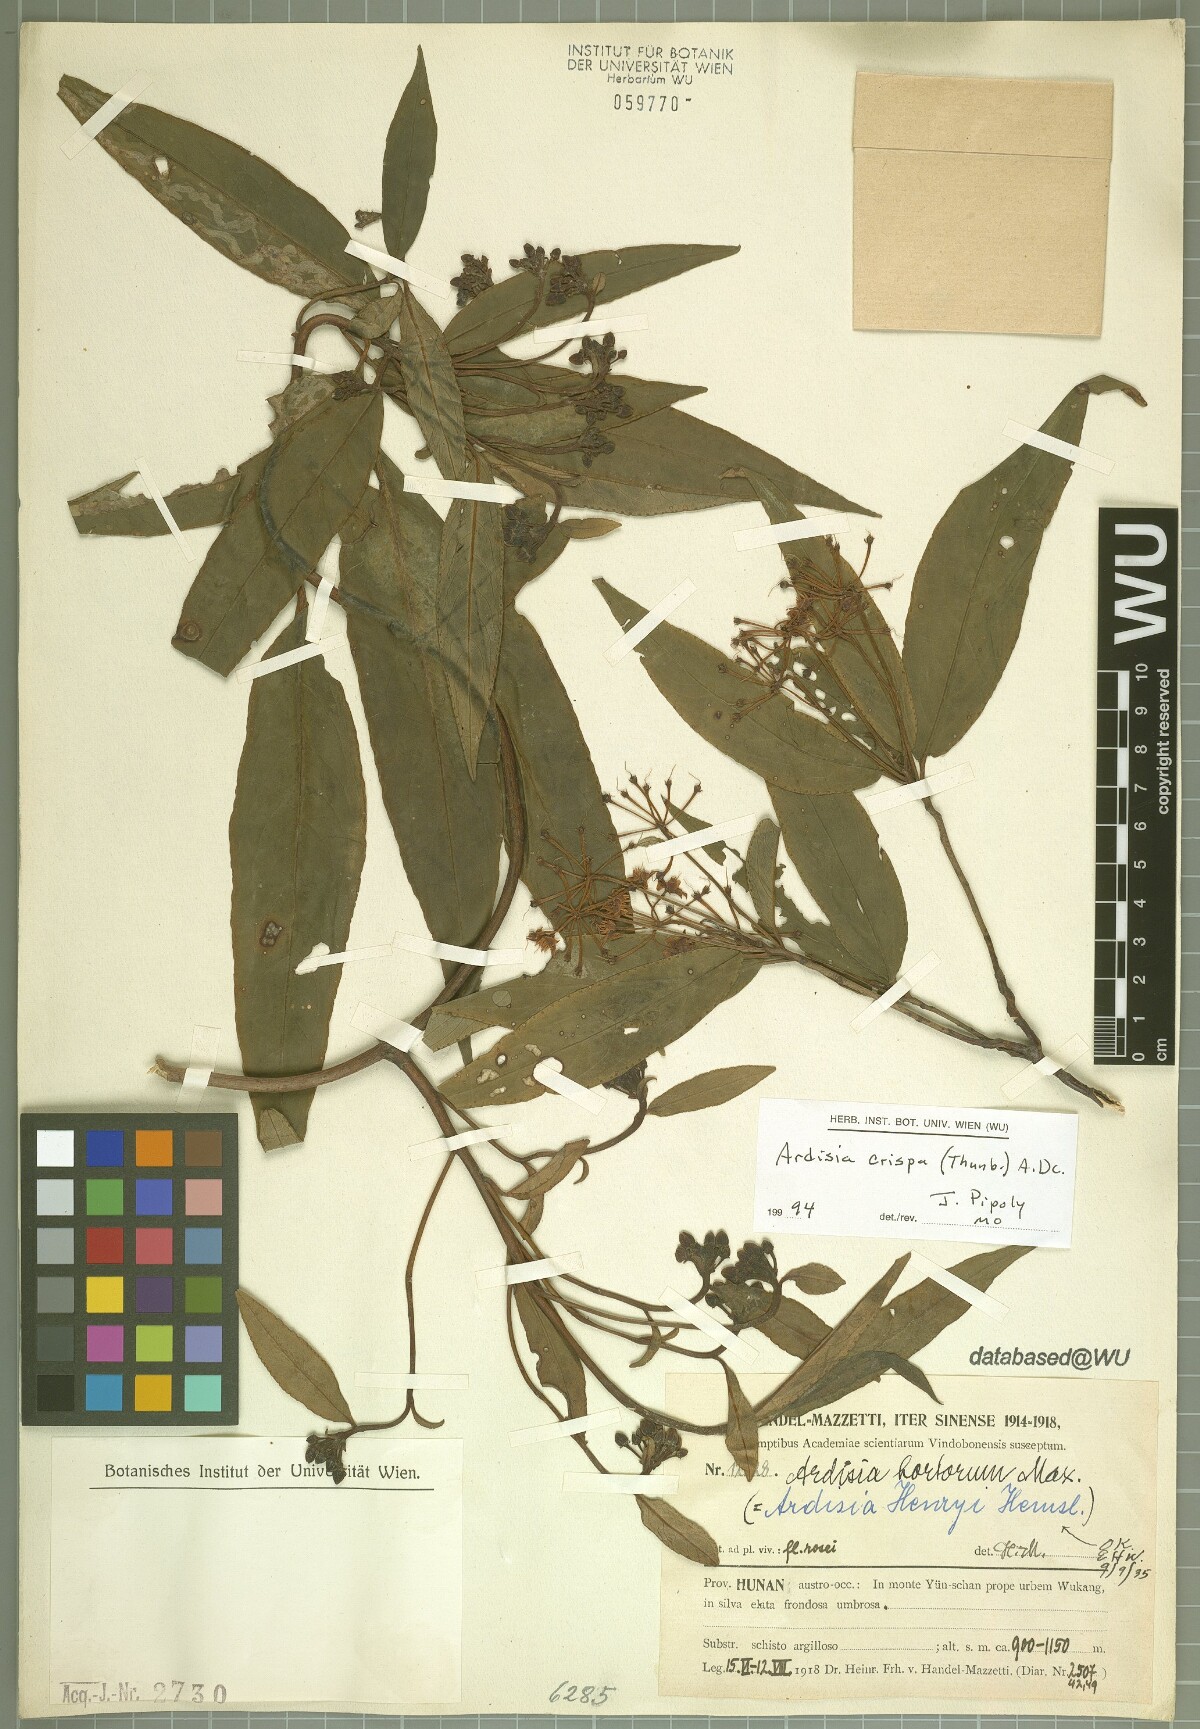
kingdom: Plantae
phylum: Tracheophyta
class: Magnoliopsida
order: Ericales
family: Primulaceae
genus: Ardisia
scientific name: Ardisia crispa
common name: Japanese-holly
